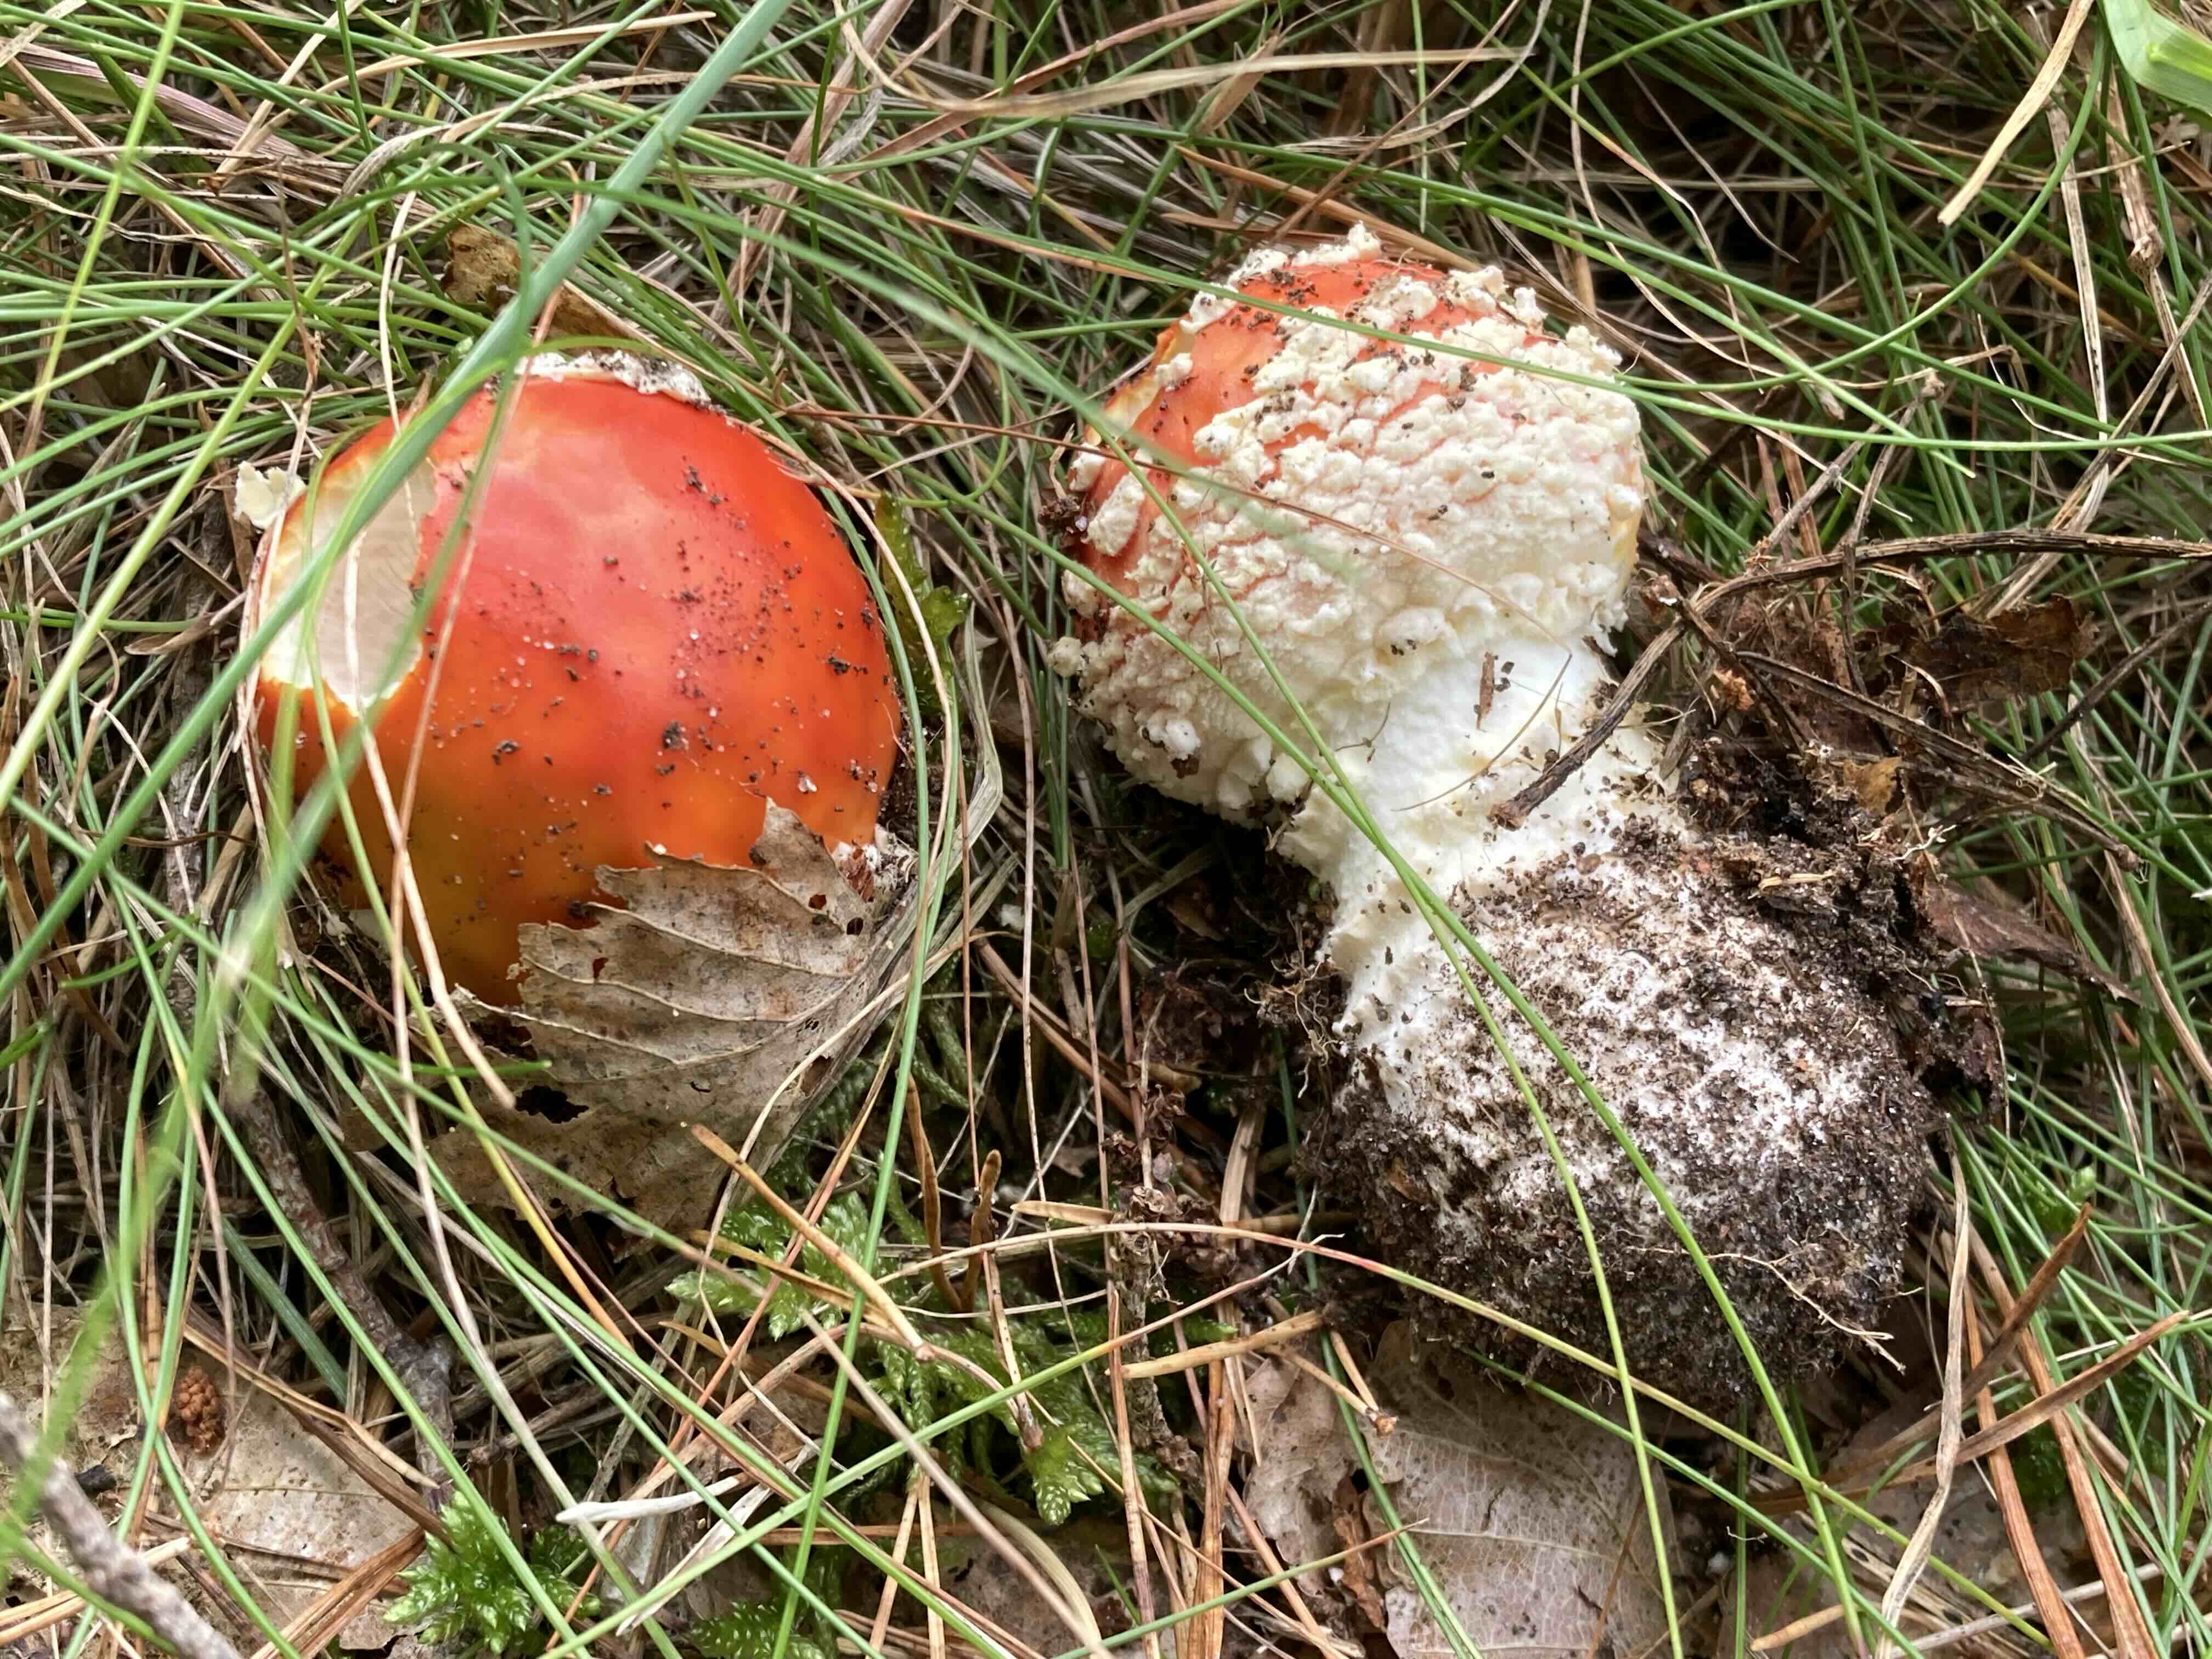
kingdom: Fungi
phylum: Basidiomycota
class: Agaricomycetes
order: Agaricales
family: Amanitaceae
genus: Amanita
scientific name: Amanita muscaria
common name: rød fluesvamp
